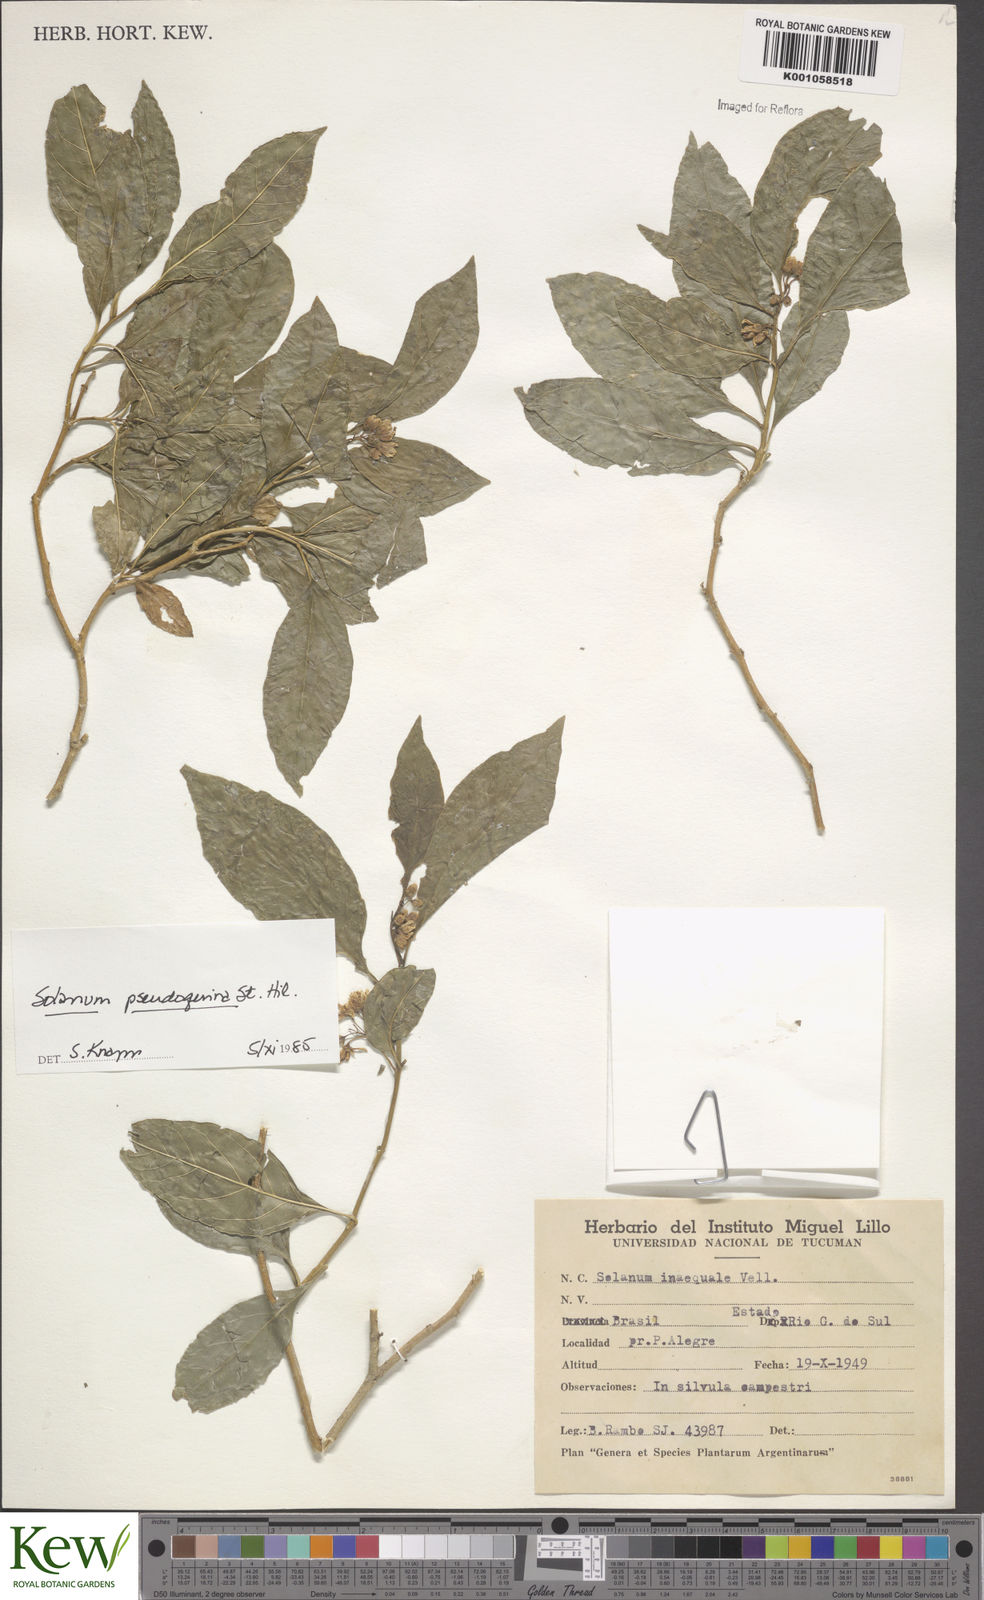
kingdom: Plantae
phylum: Tracheophyta
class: Magnoliopsida
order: Solanales
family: Solanaceae
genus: Solanum
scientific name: Solanum pseudoquina
